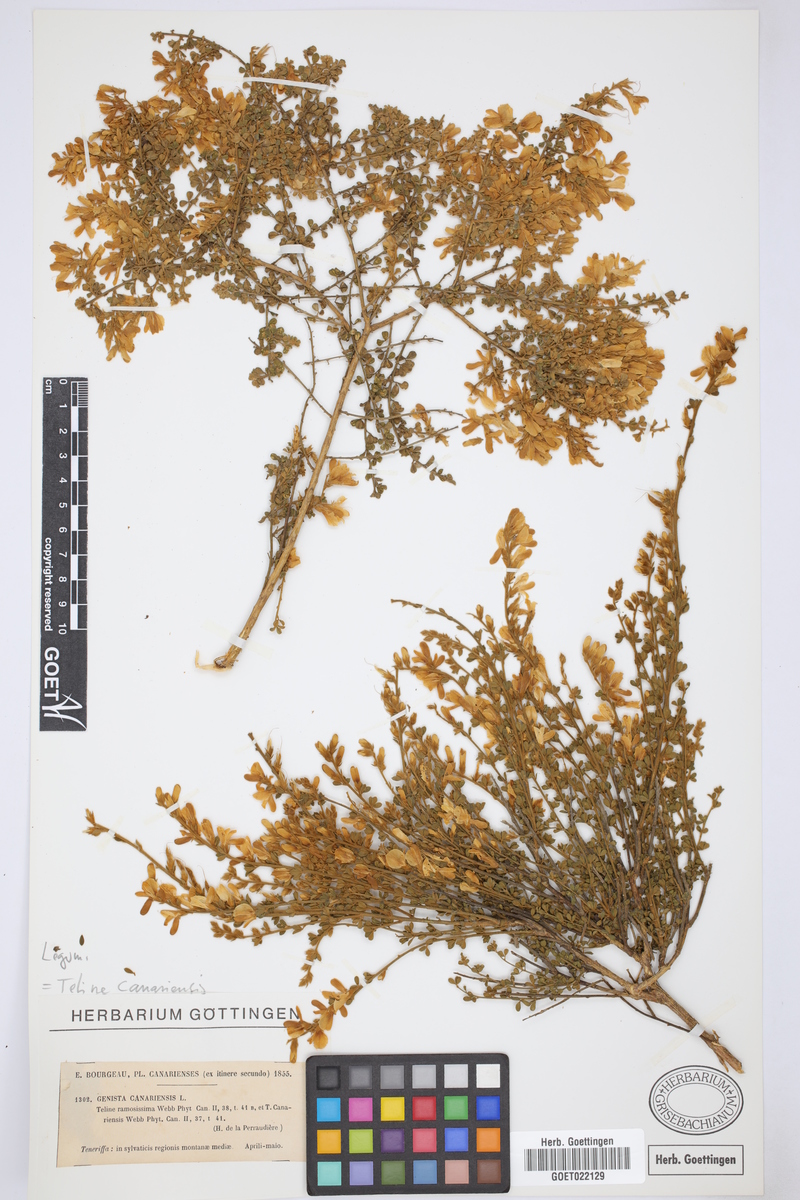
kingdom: Plantae
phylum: Tracheophyta
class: Magnoliopsida
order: Fabales
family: Fabaceae
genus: Genista
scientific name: Genista canariensis
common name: Canary broom
